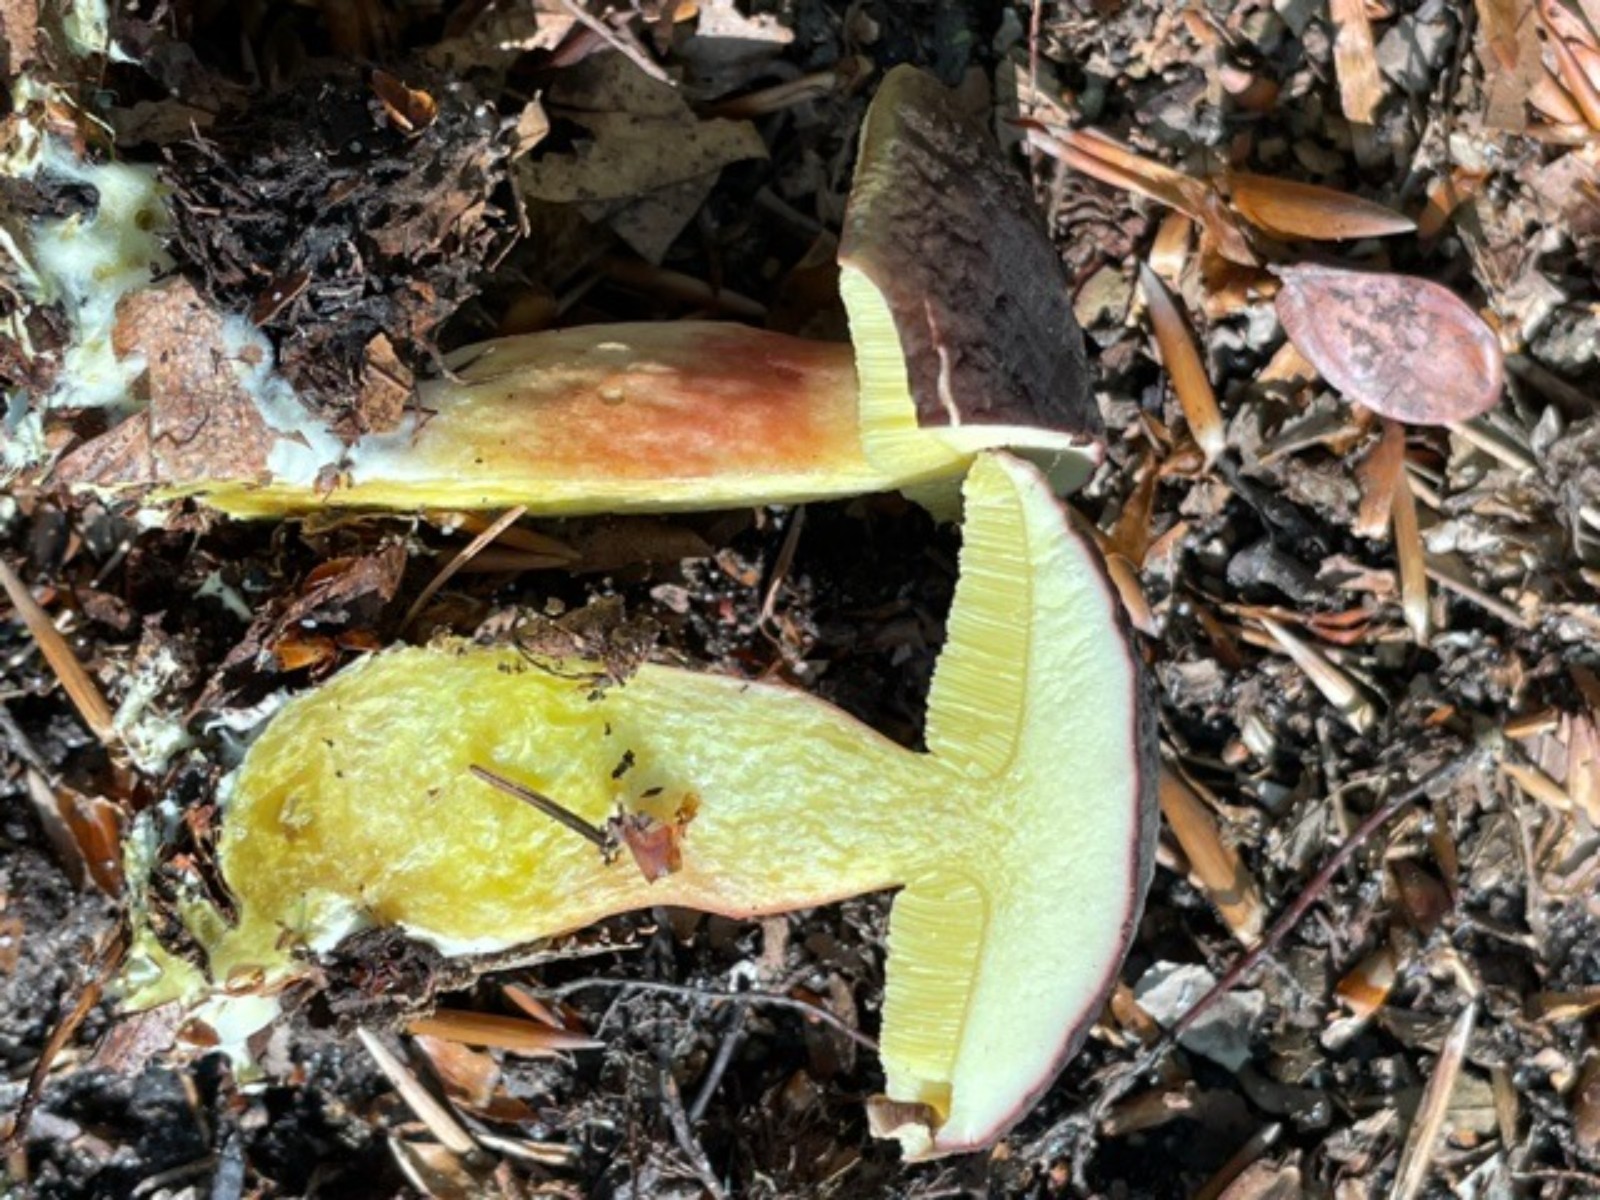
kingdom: Fungi
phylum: Basidiomycota
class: Agaricomycetes
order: Boletales
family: Boletaceae
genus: Xerocomellus
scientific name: Xerocomellus pruinatus
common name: dugget rørhat
